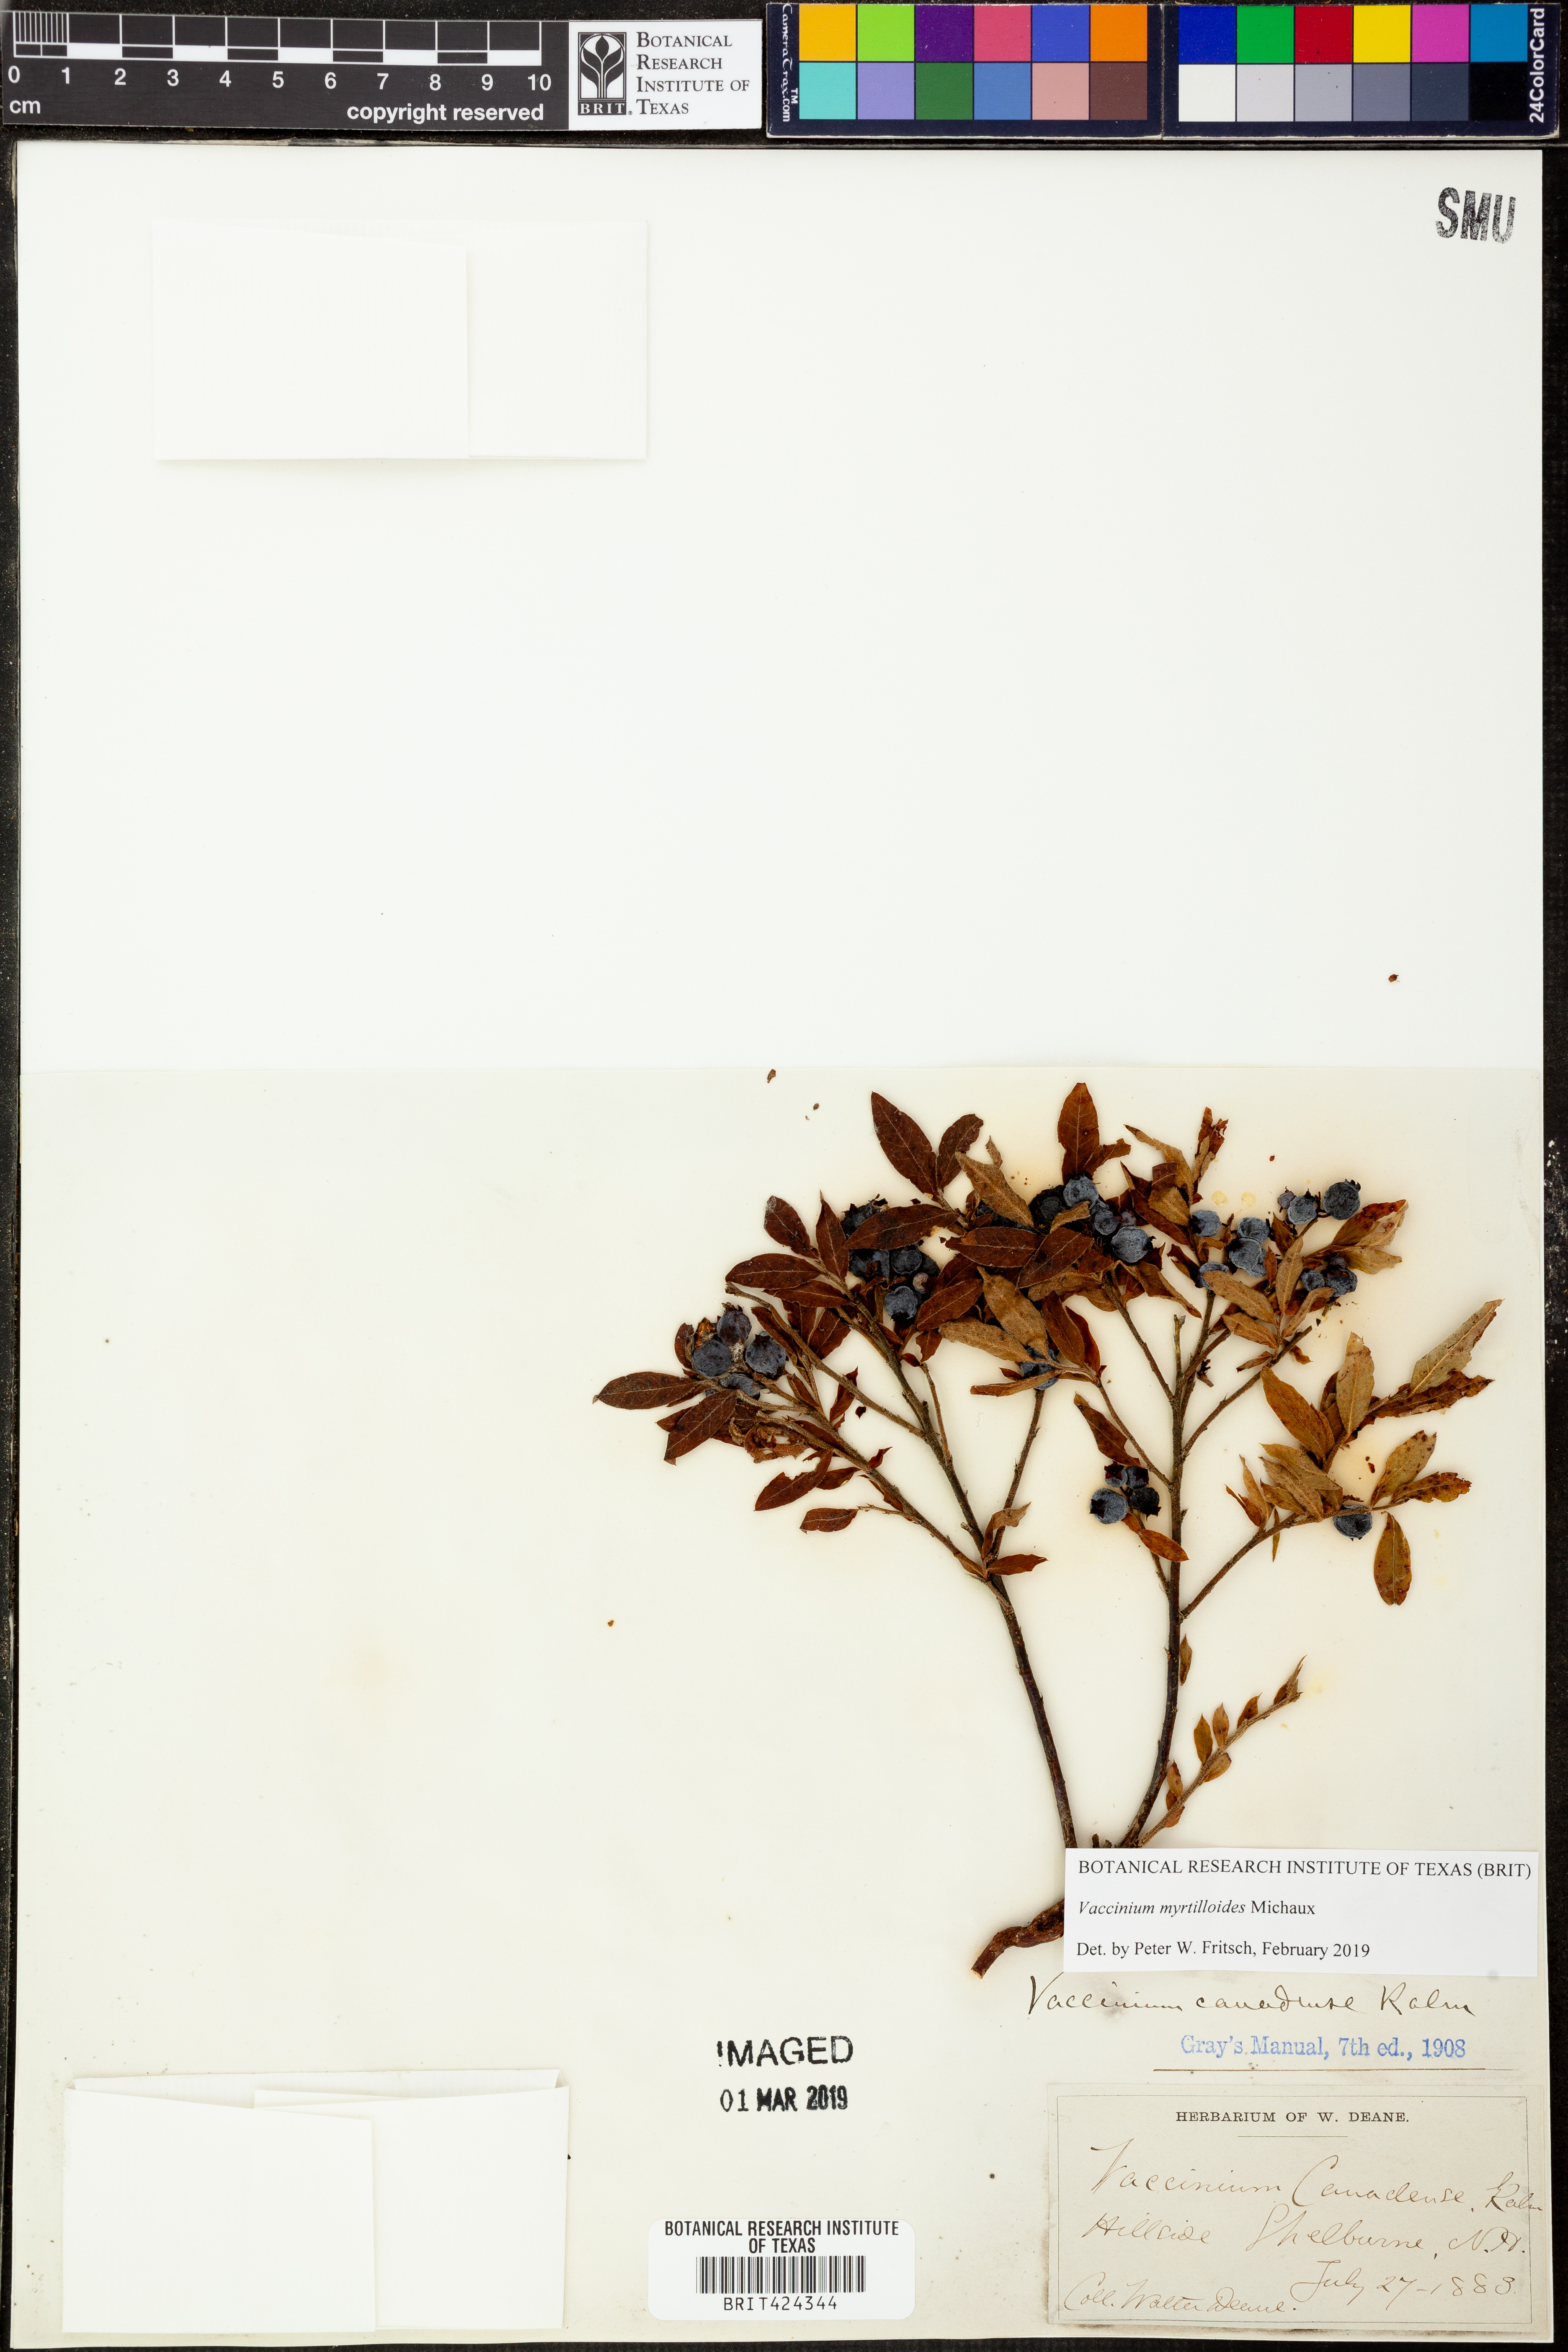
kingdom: Plantae
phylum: Tracheophyta
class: Magnoliopsida
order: Ericales
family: Ericaceae
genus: Vaccinium
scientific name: Vaccinium myrtilloides
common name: Canada blueberry
